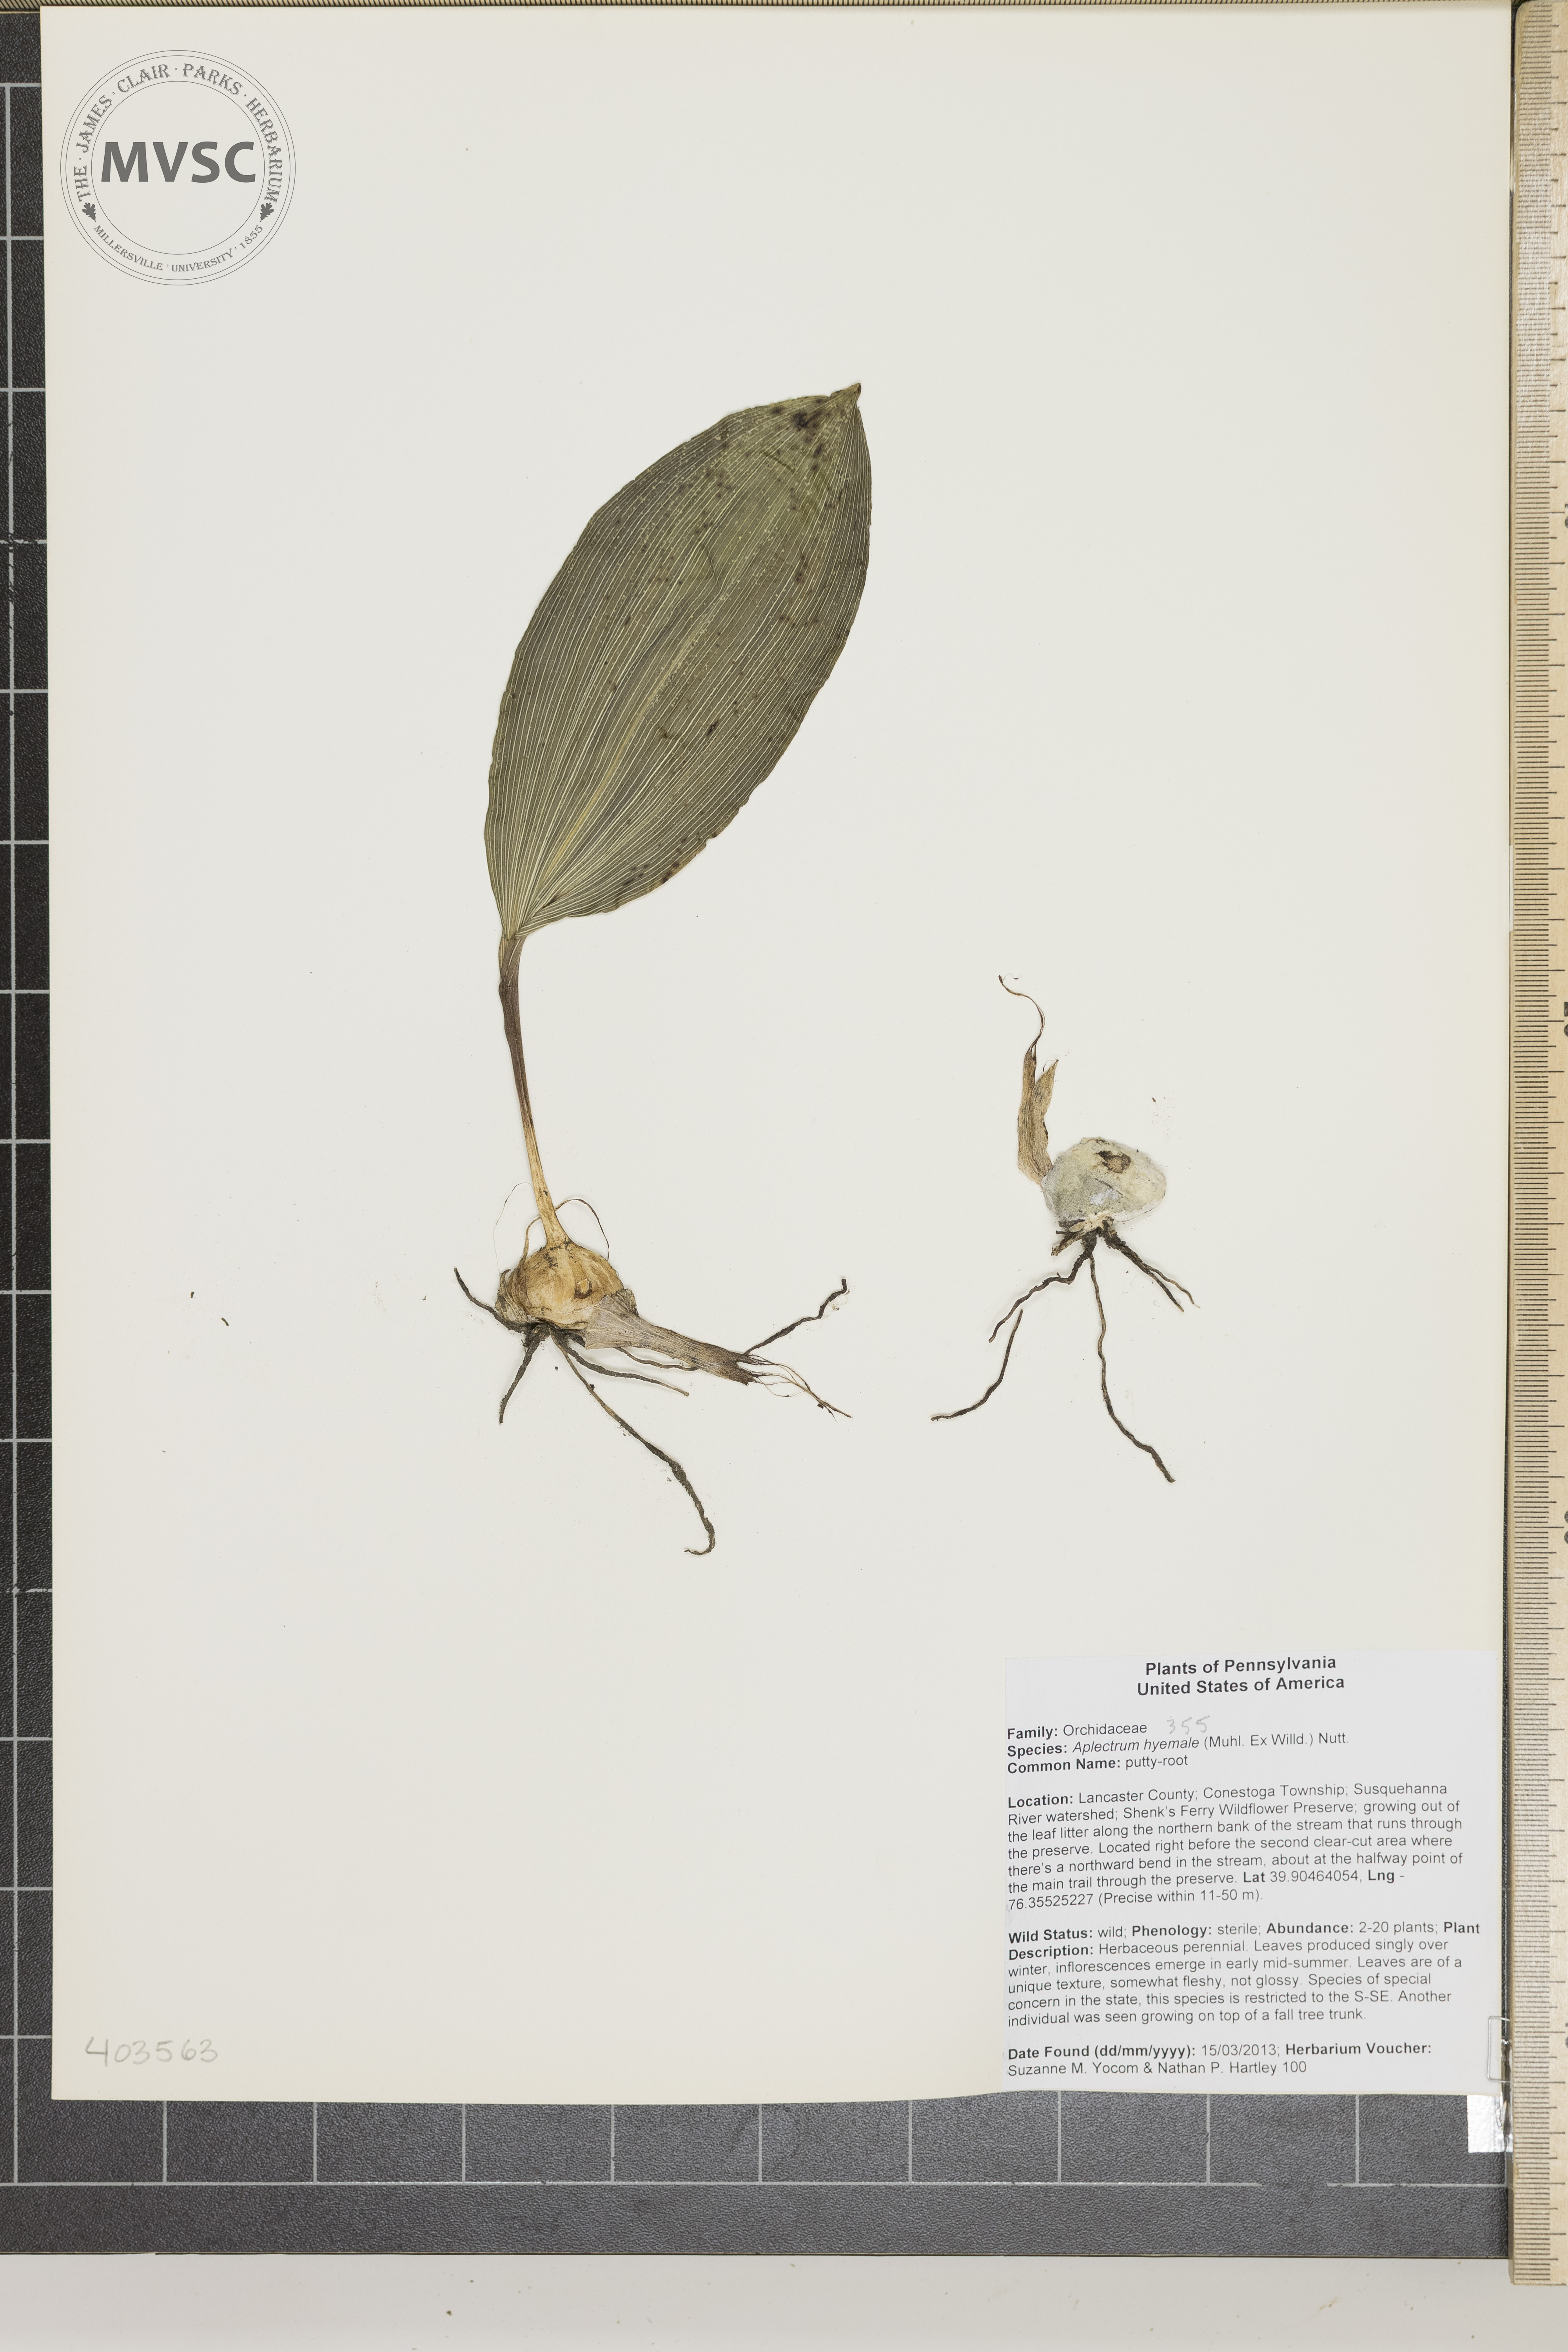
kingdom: Plantae
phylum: Tracheophyta
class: Liliopsida
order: Asparagales
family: Orchidaceae
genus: Aplectrum
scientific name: Aplectrum hyemale
